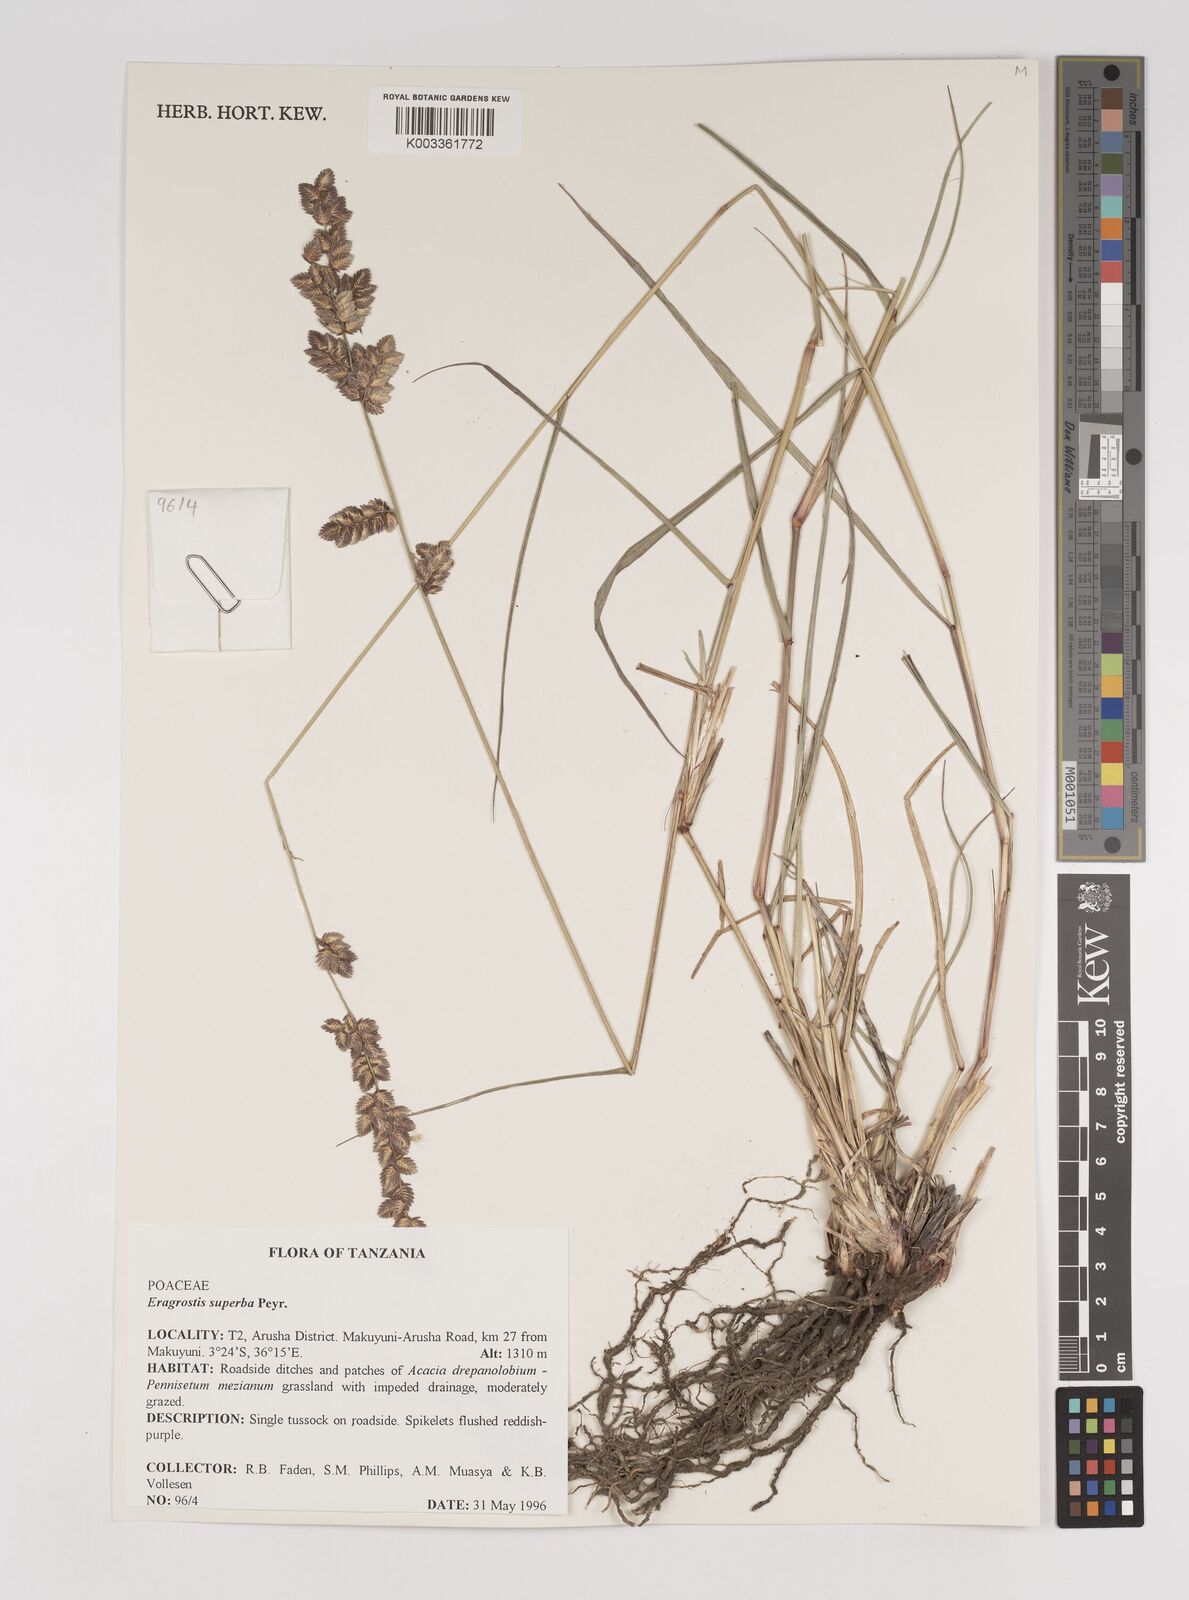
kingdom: Plantae
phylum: Tracheophyta
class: Liliopsida
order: Poales
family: Poaceae
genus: Eragrostis
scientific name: Eragrostis superba
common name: Wilman lovegrass
